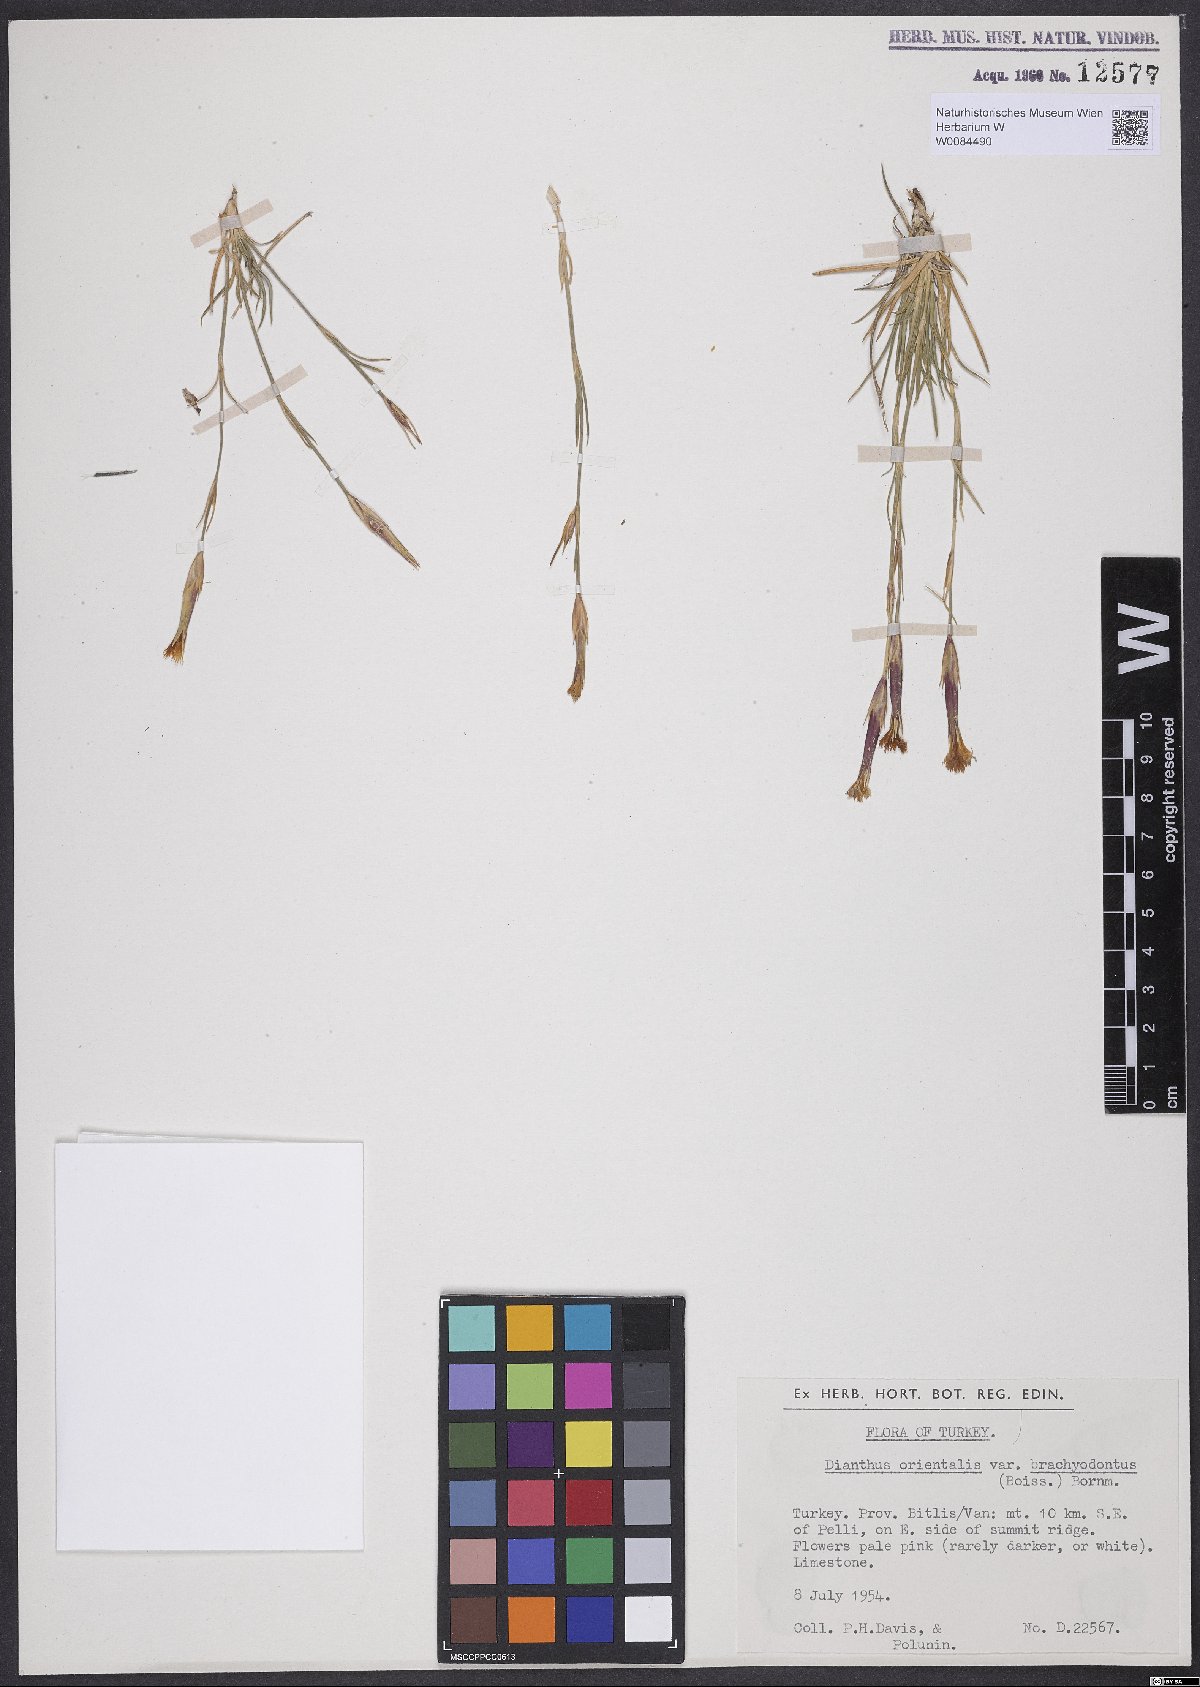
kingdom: Plantae
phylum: Tracheophyta
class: Magnoliopsida
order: Caryophyllales
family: Caryophyllaceae
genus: Dianthus
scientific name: Dianthus orientalis
